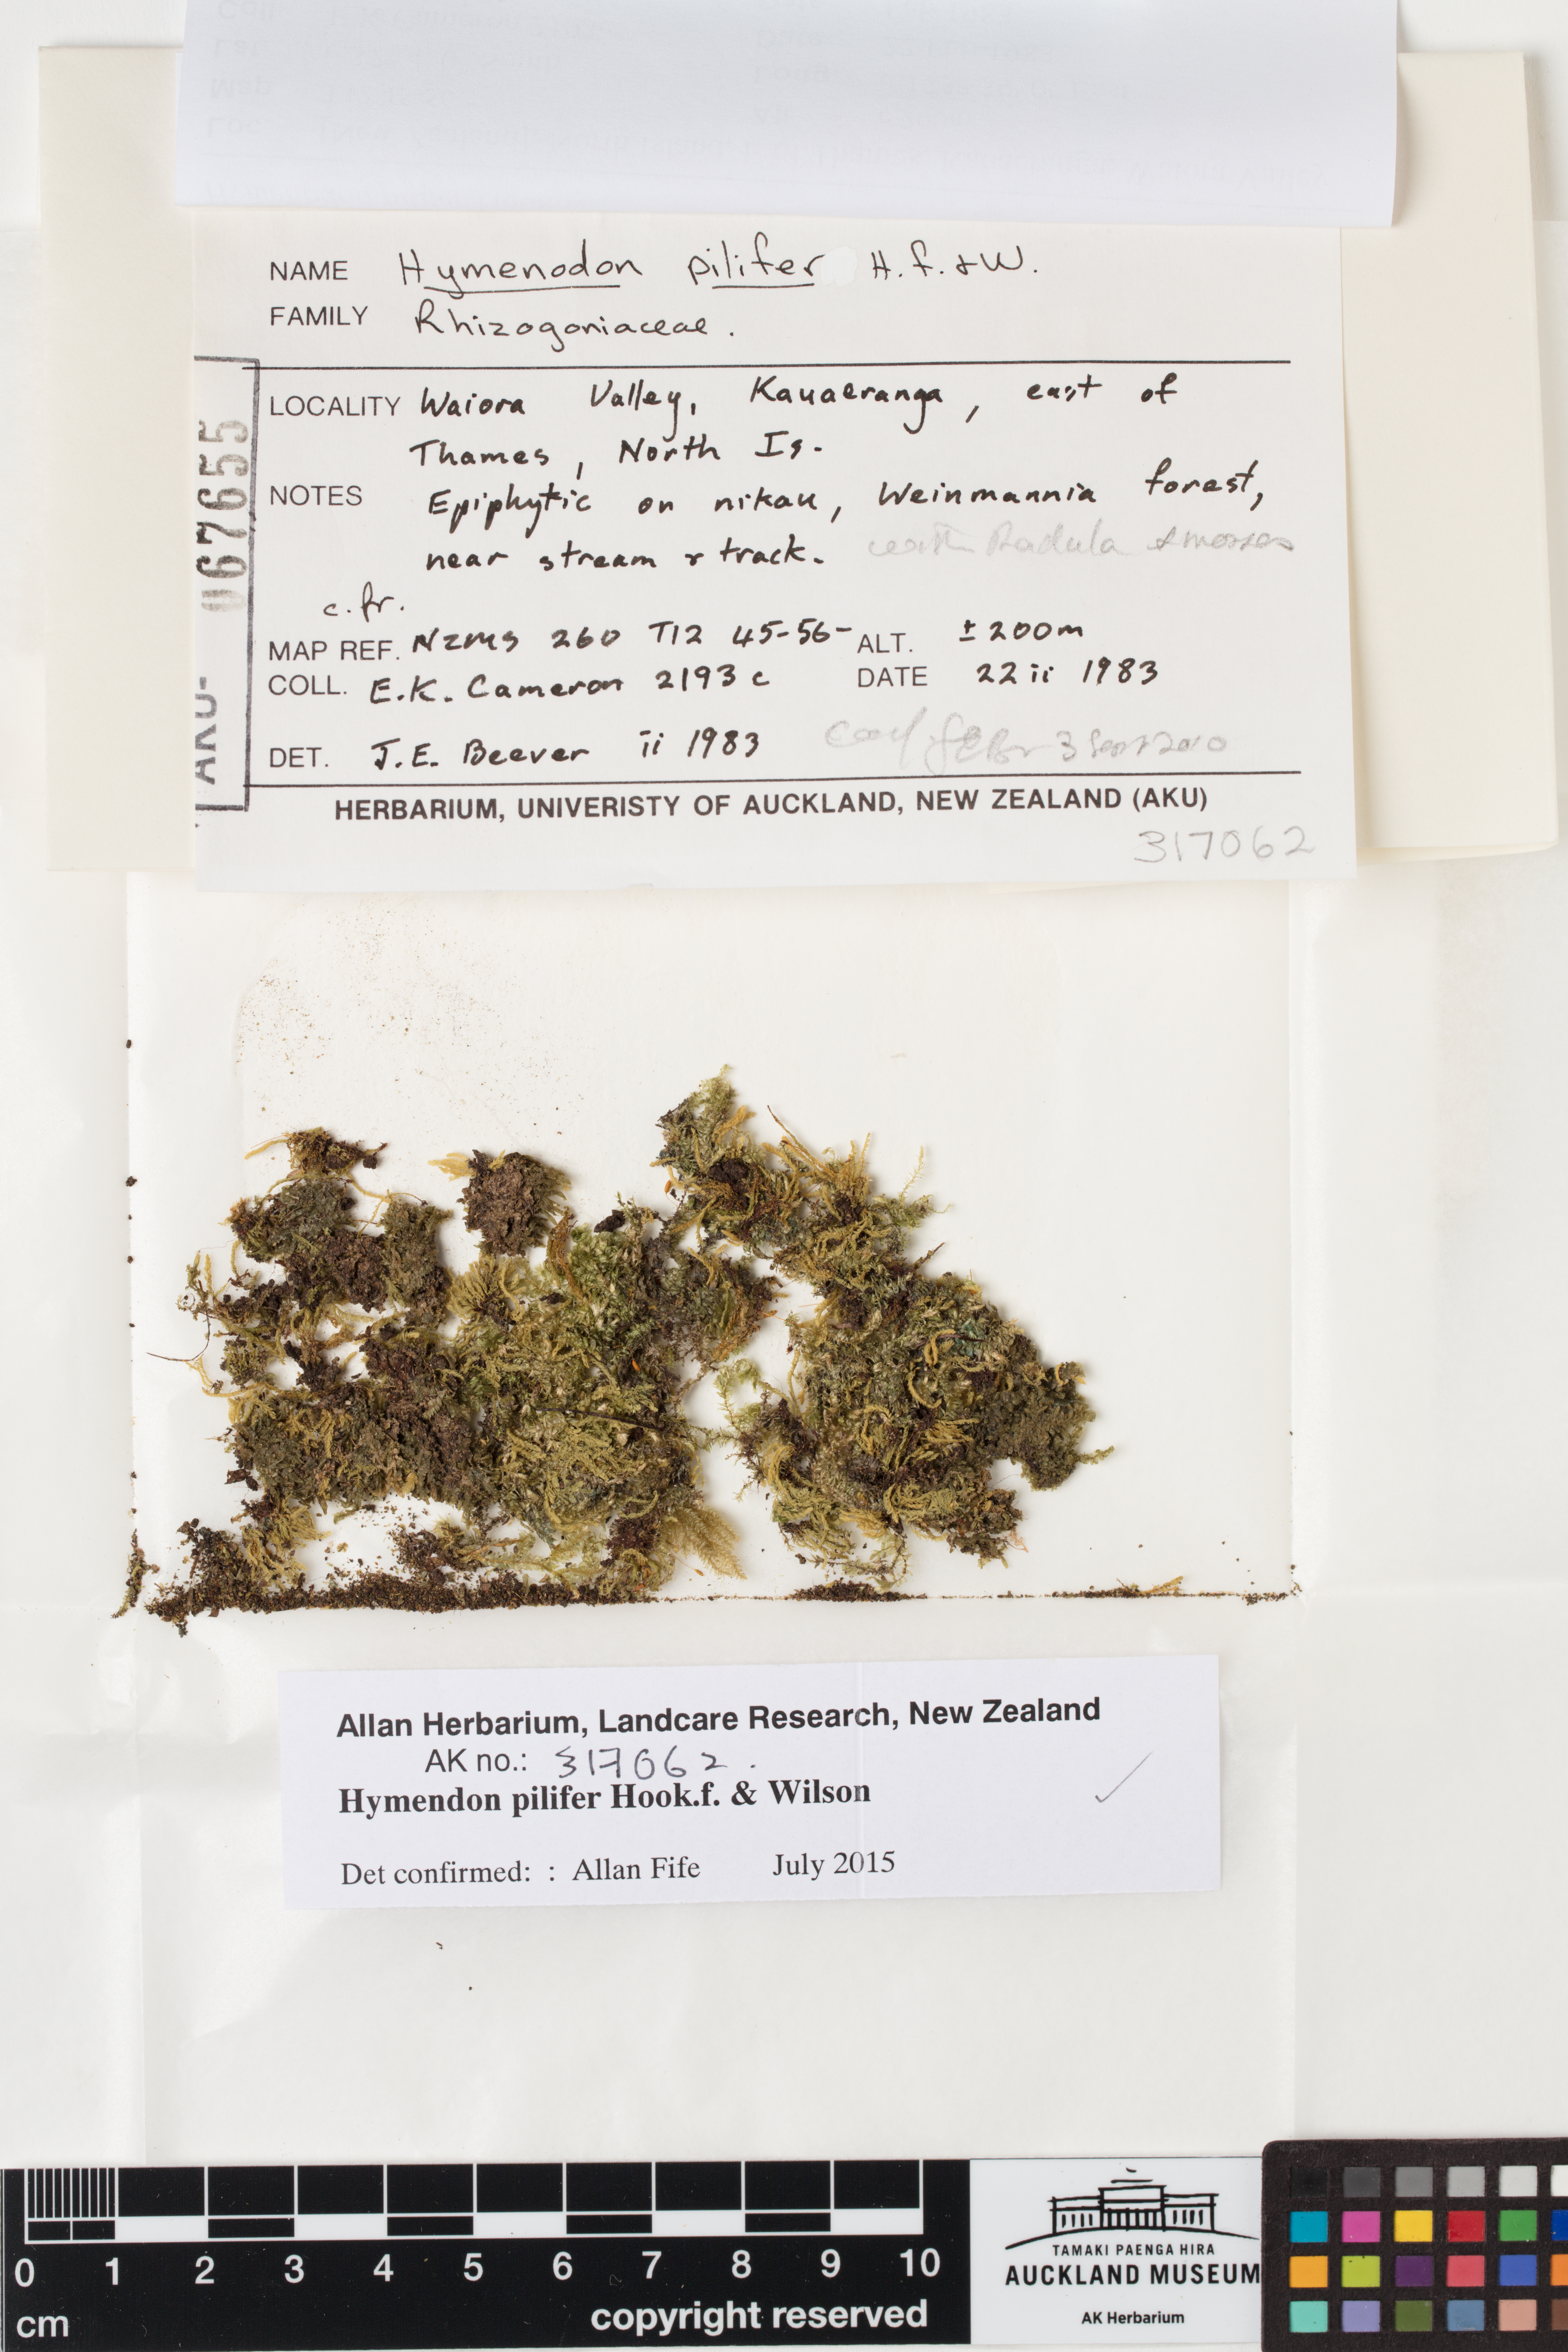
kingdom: Plantae
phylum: Bryophyta
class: Bryopsida
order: Orthodontiales
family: Orthodontiaceae
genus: Hymenodon
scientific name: Hymenodon pilifer
